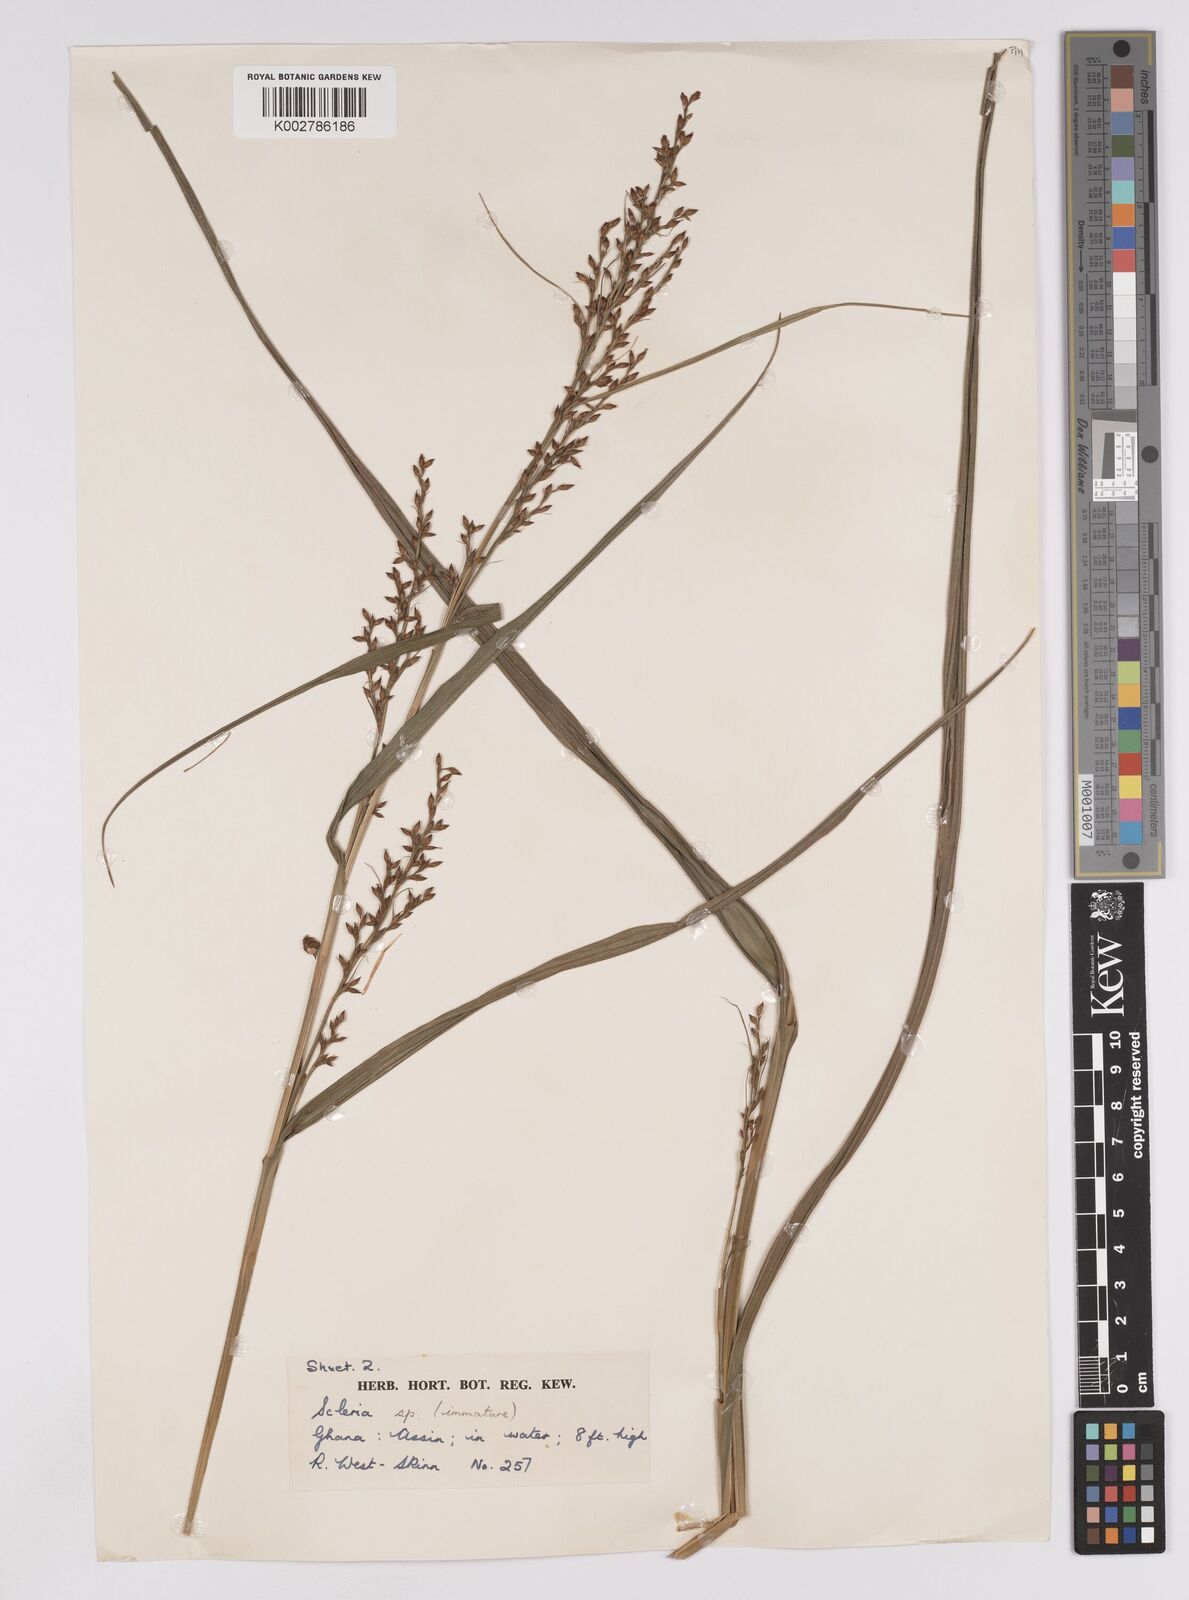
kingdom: Plantae
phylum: Tracheophyta
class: Liliopsida
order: Poales
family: Cyperaceae
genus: Scleria
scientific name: Scleria verrucosa
